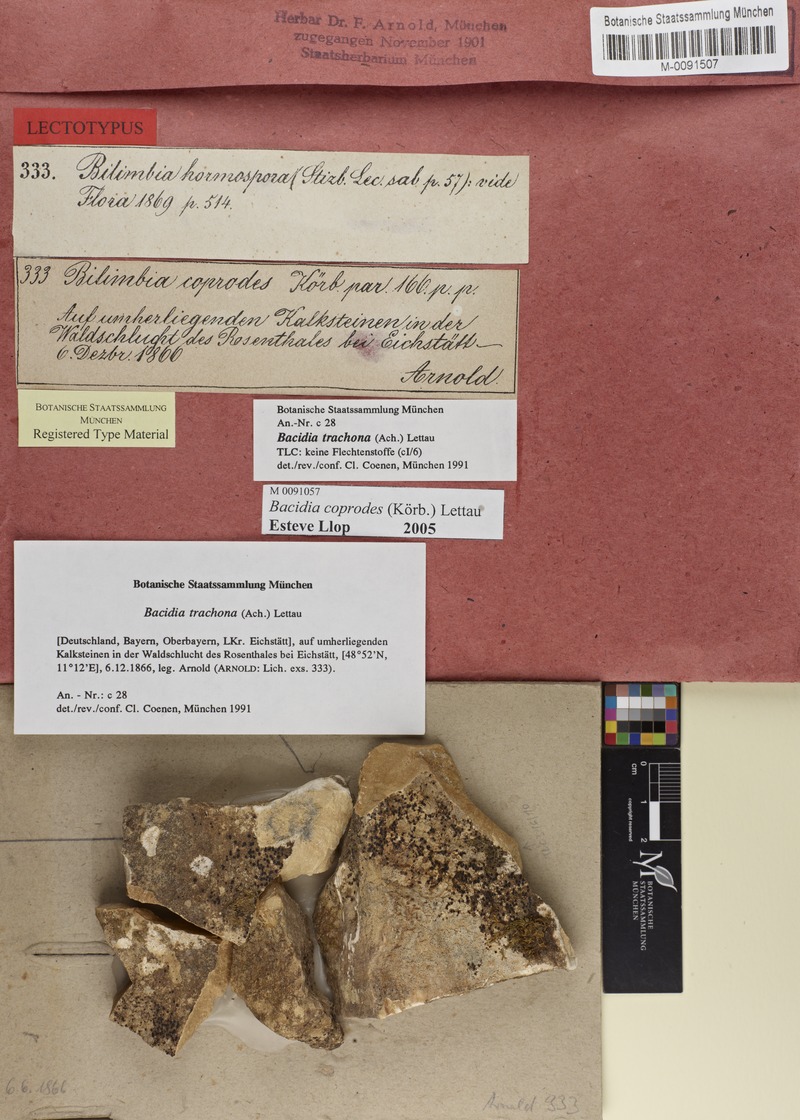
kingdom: Fungi
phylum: Ascomycota
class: Lecanoromycetes
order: Lecanorales
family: Ramalinaceae
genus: Toniniopsis
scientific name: Toniniopsis coprodes
